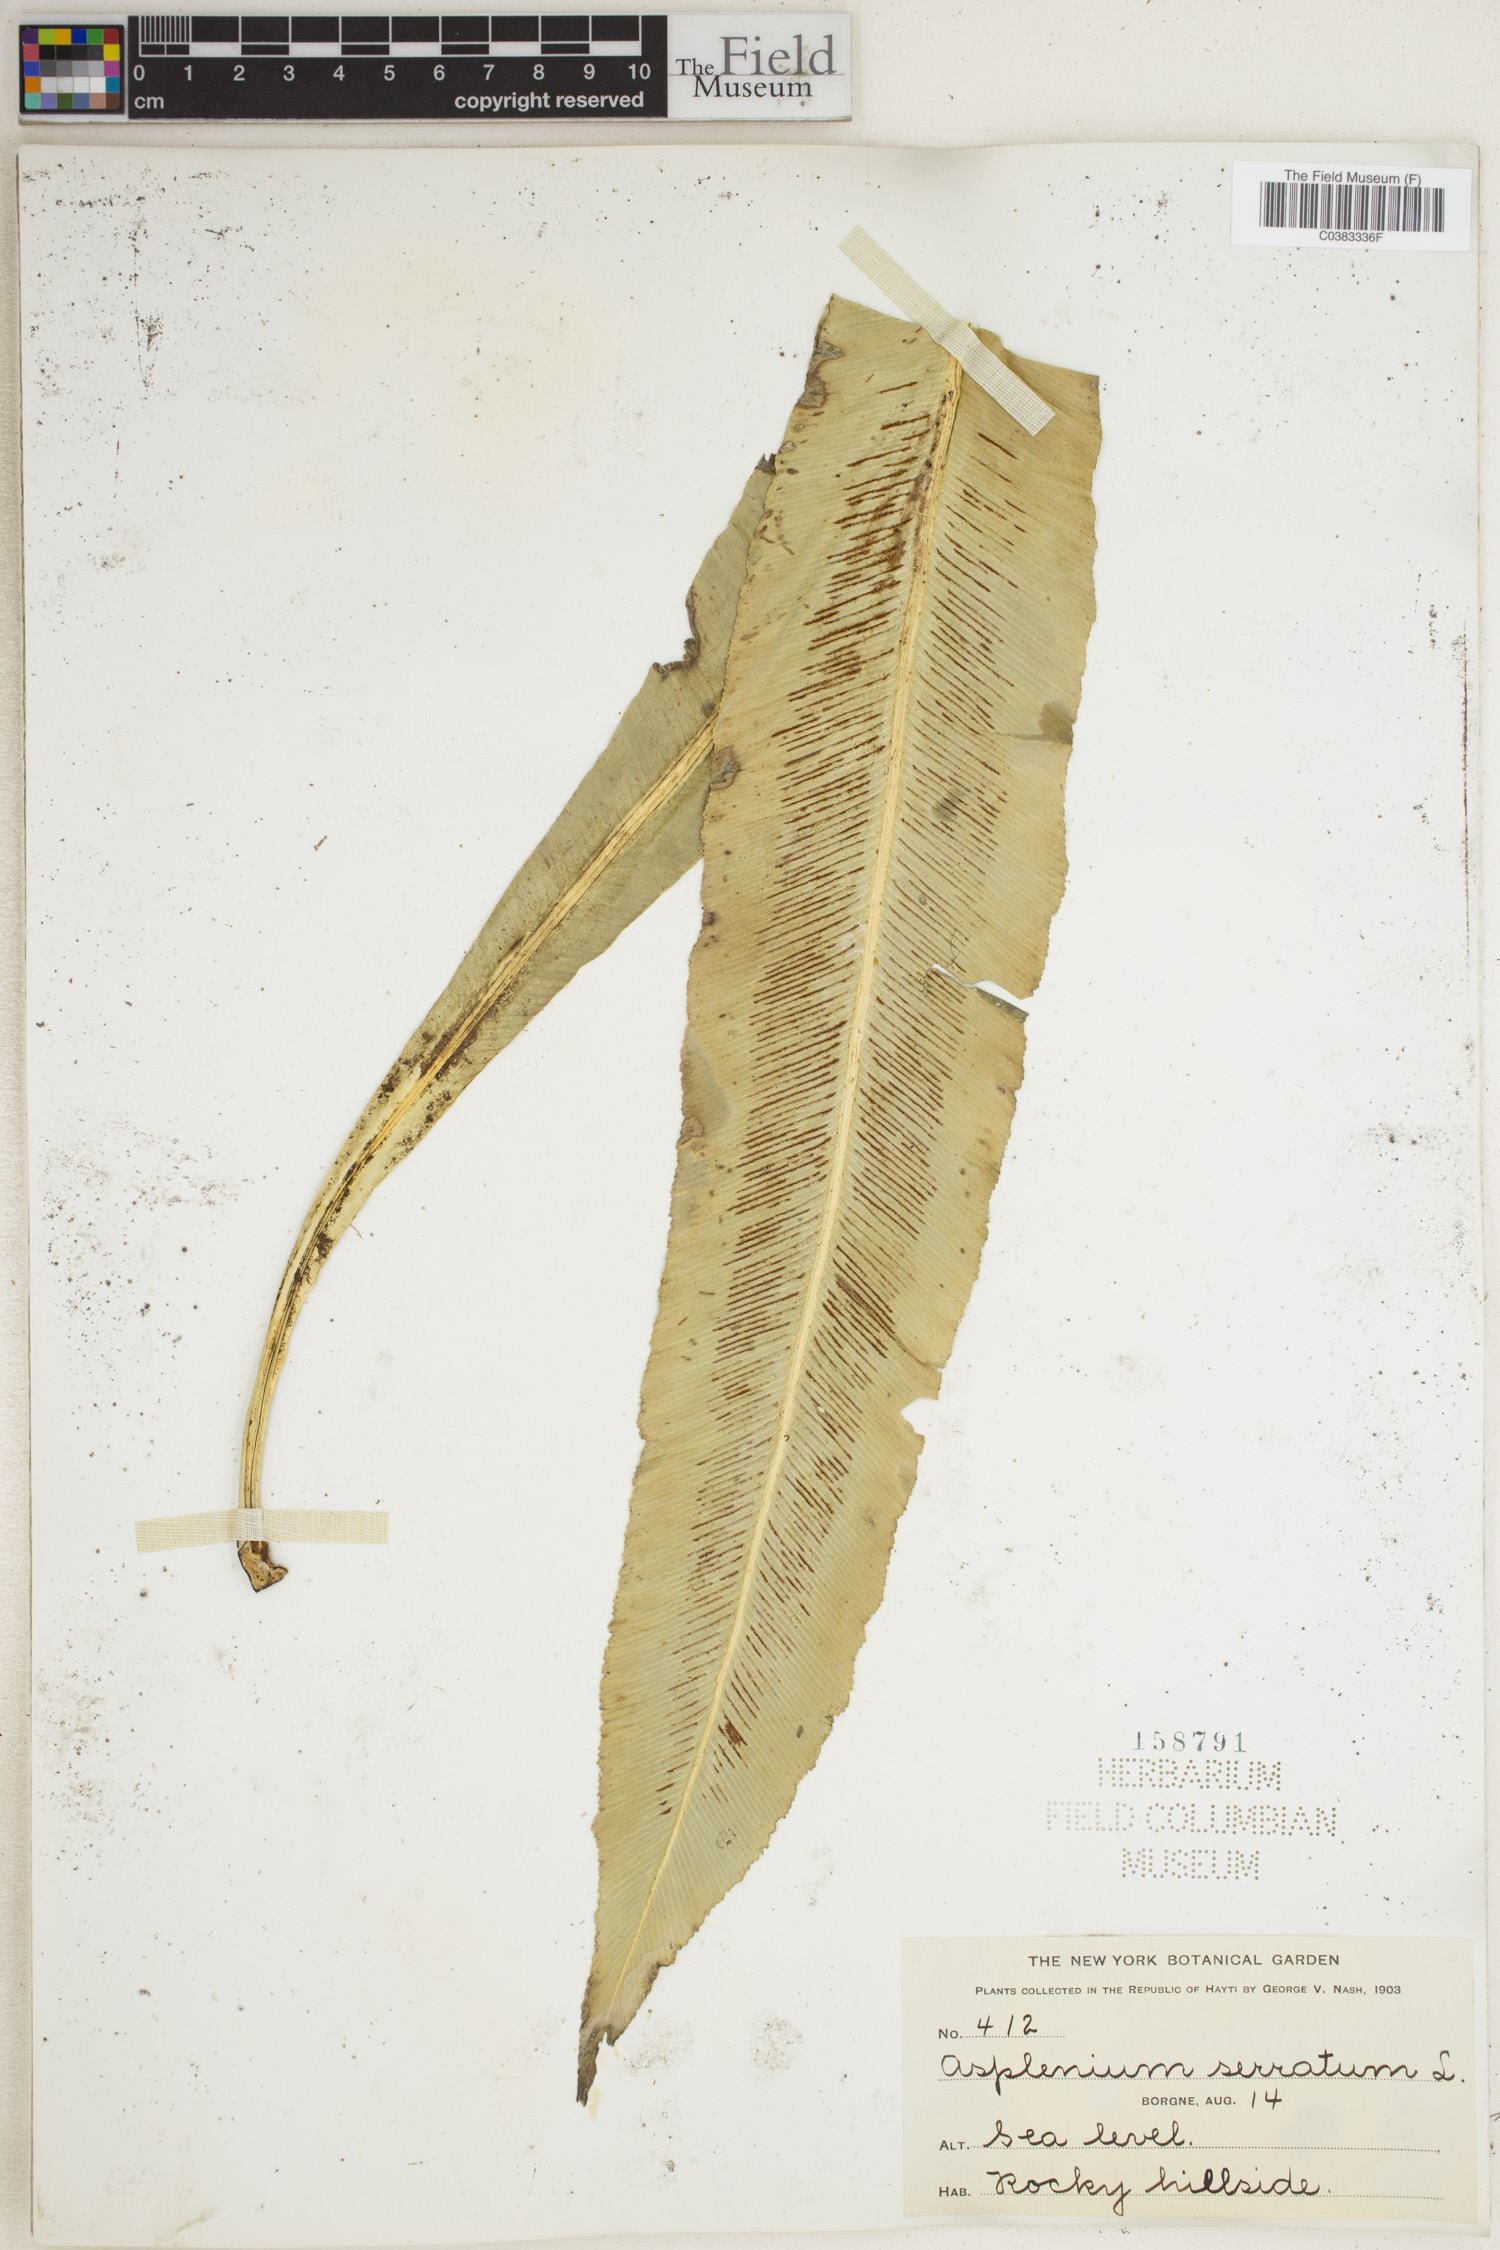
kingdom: Plantae
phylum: Tracheophyta
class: Polypodiopsida
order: Polypodiales
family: Aspleniaceae
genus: Asplenium
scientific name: Asplenium serratum
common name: Wild birdnest fern
